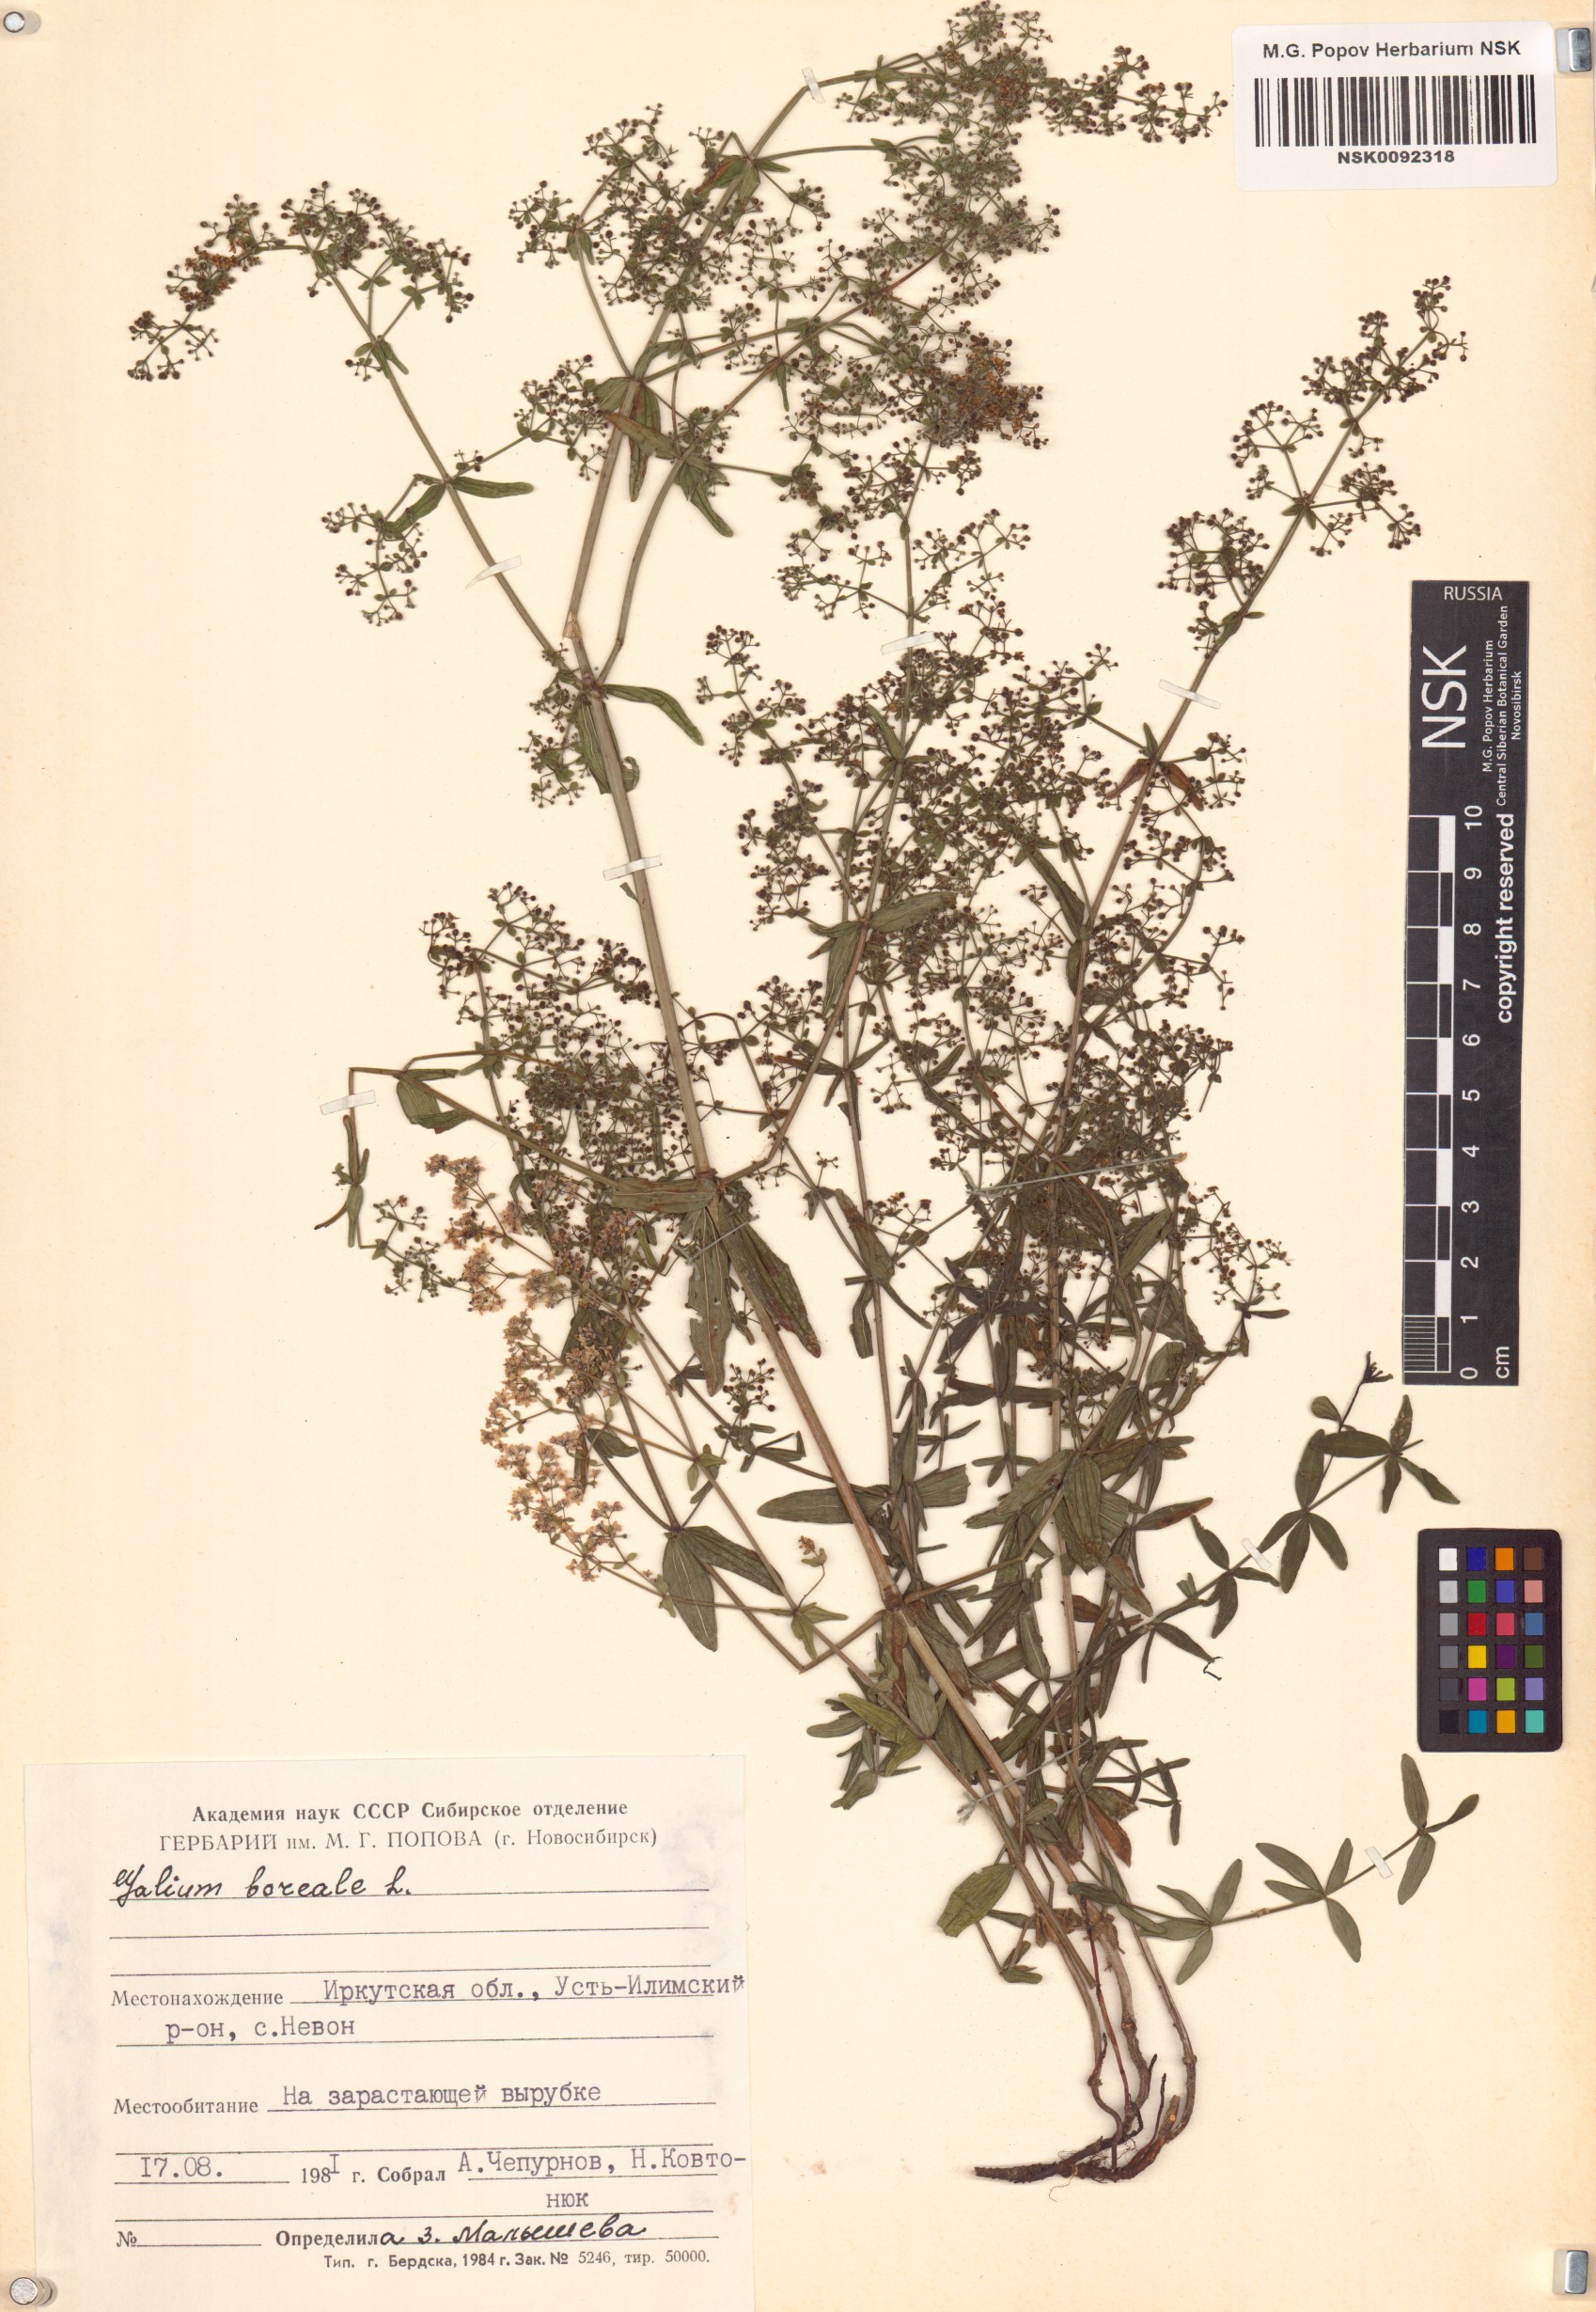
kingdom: Plantae
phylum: Tracheophyta
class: Magnoliopsida
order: Gentianales
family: Rubiaceae
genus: Galium
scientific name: Galium boreale
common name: Northern bedstraw
